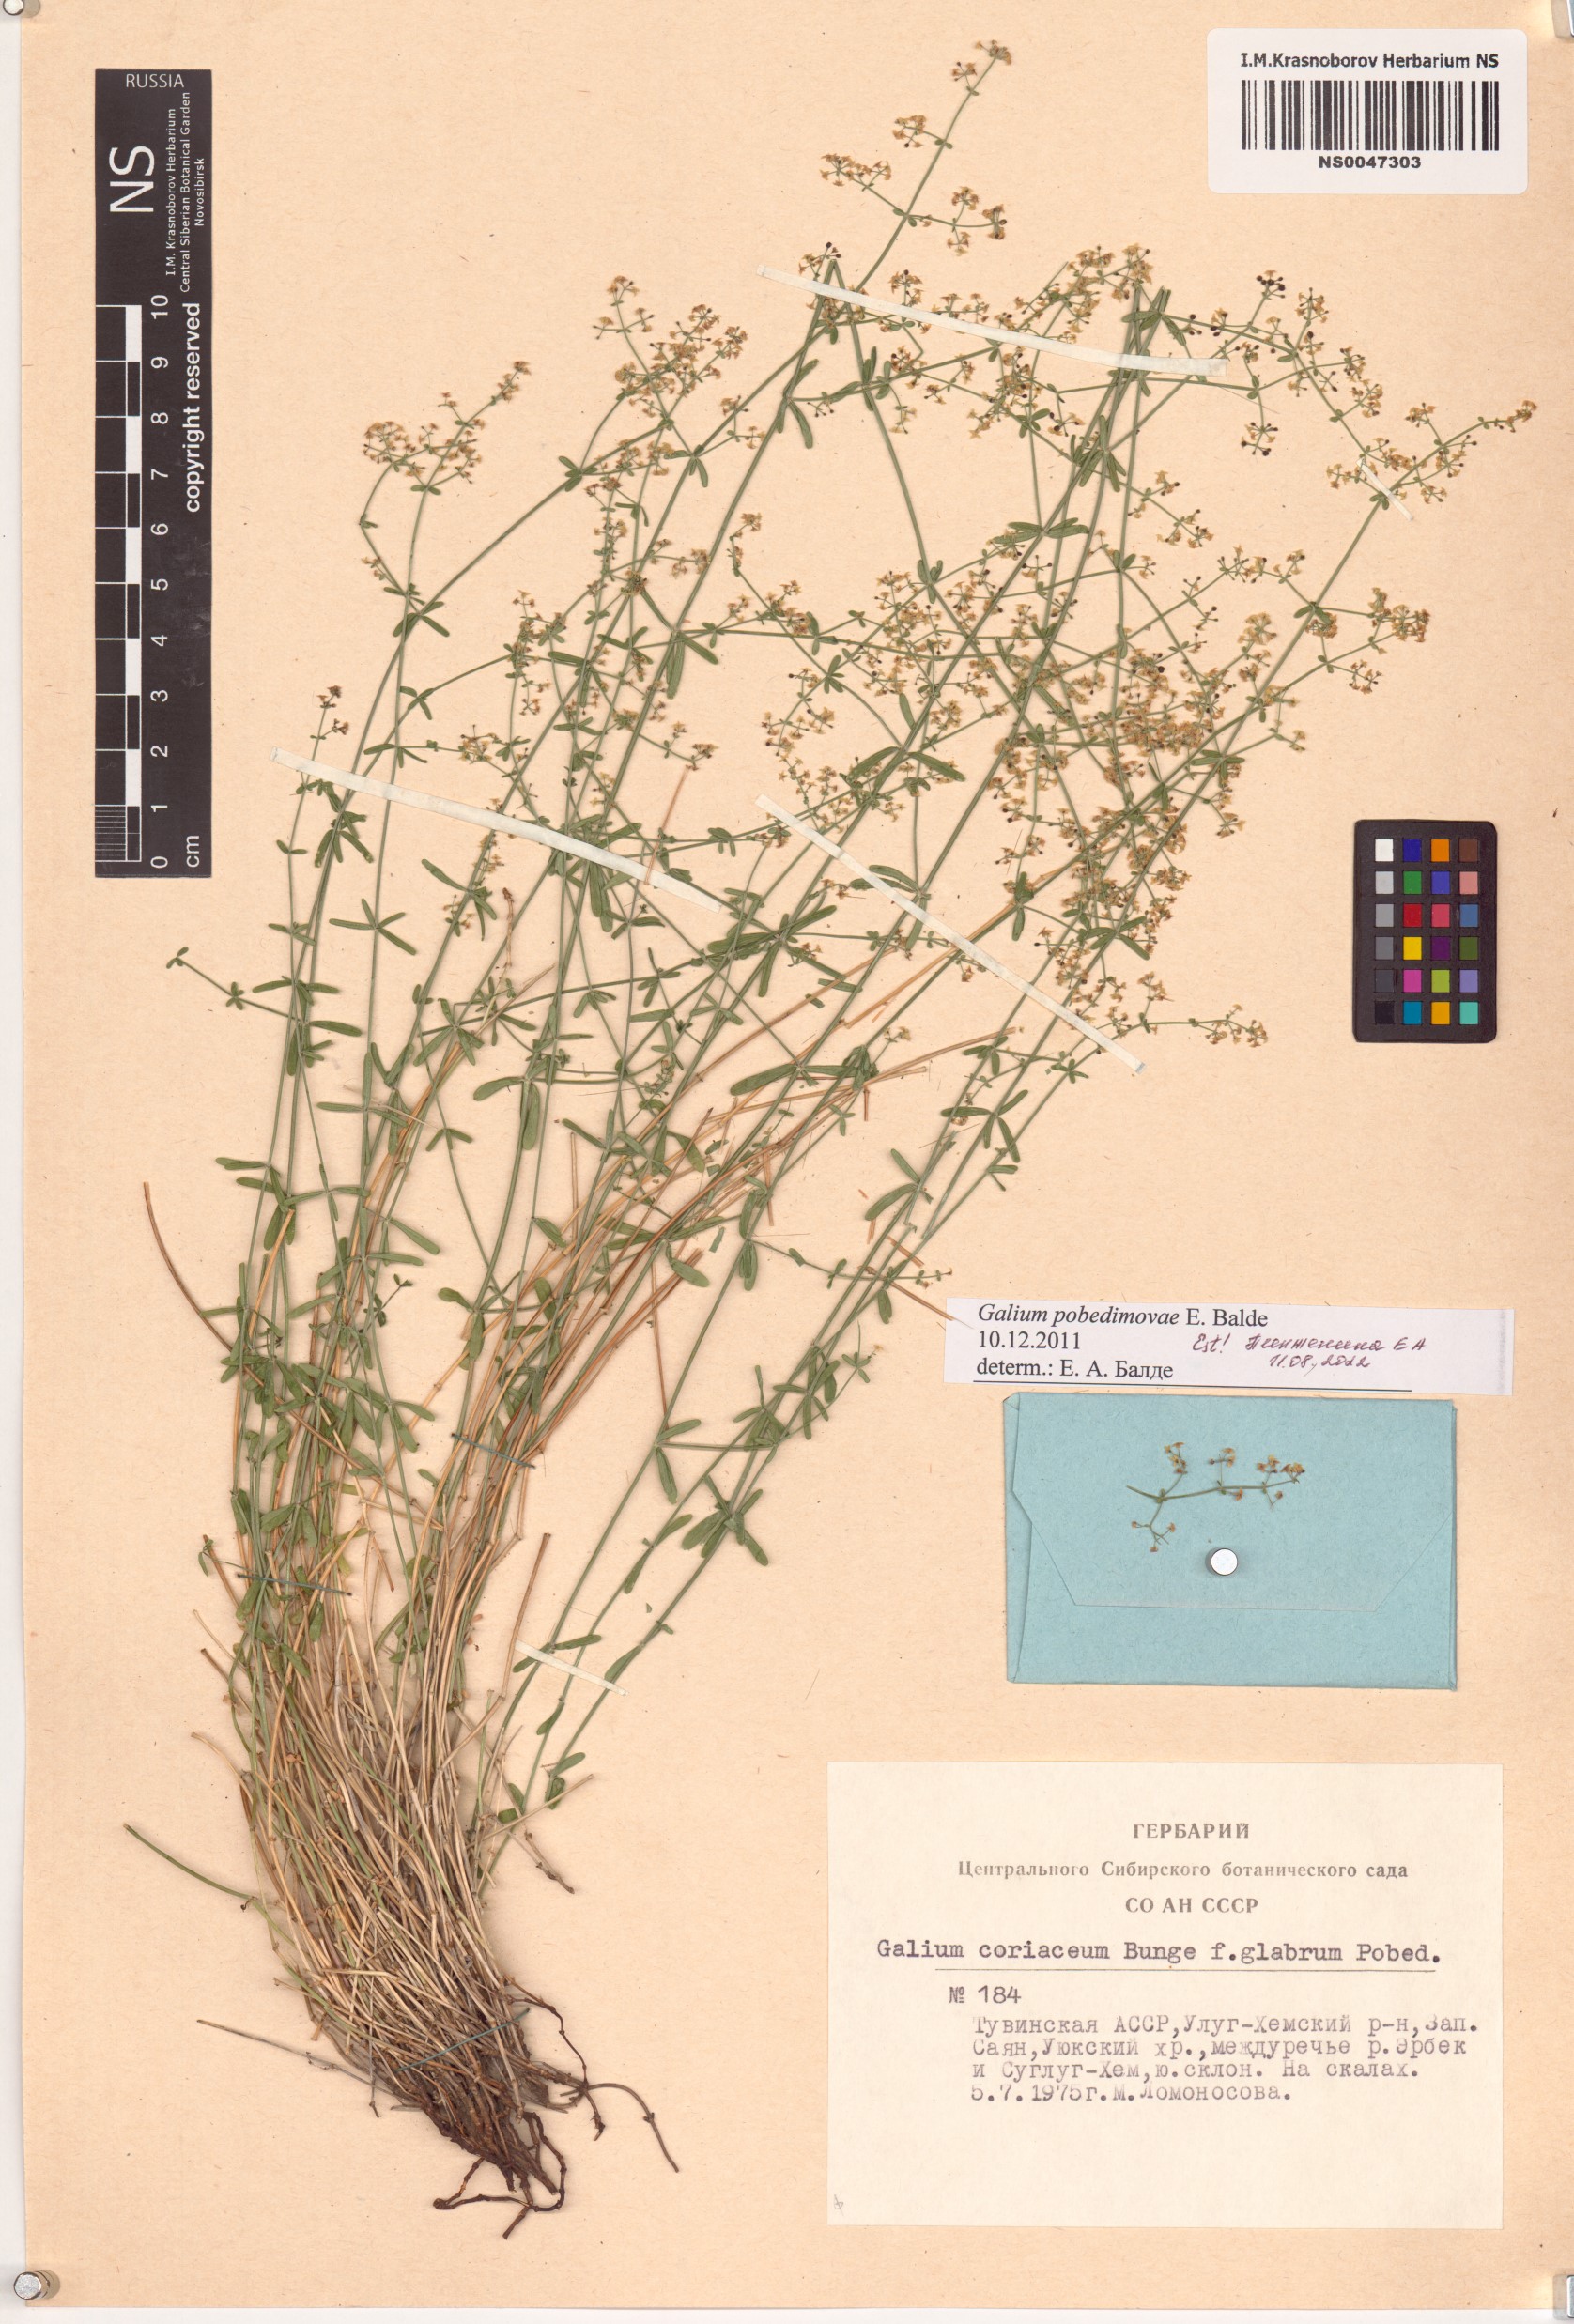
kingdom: Plantae
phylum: Tracheophyta
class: Magnoliopsida
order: Gentianales
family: Rubiaceae
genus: Galium
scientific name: Galium pobedimovae
